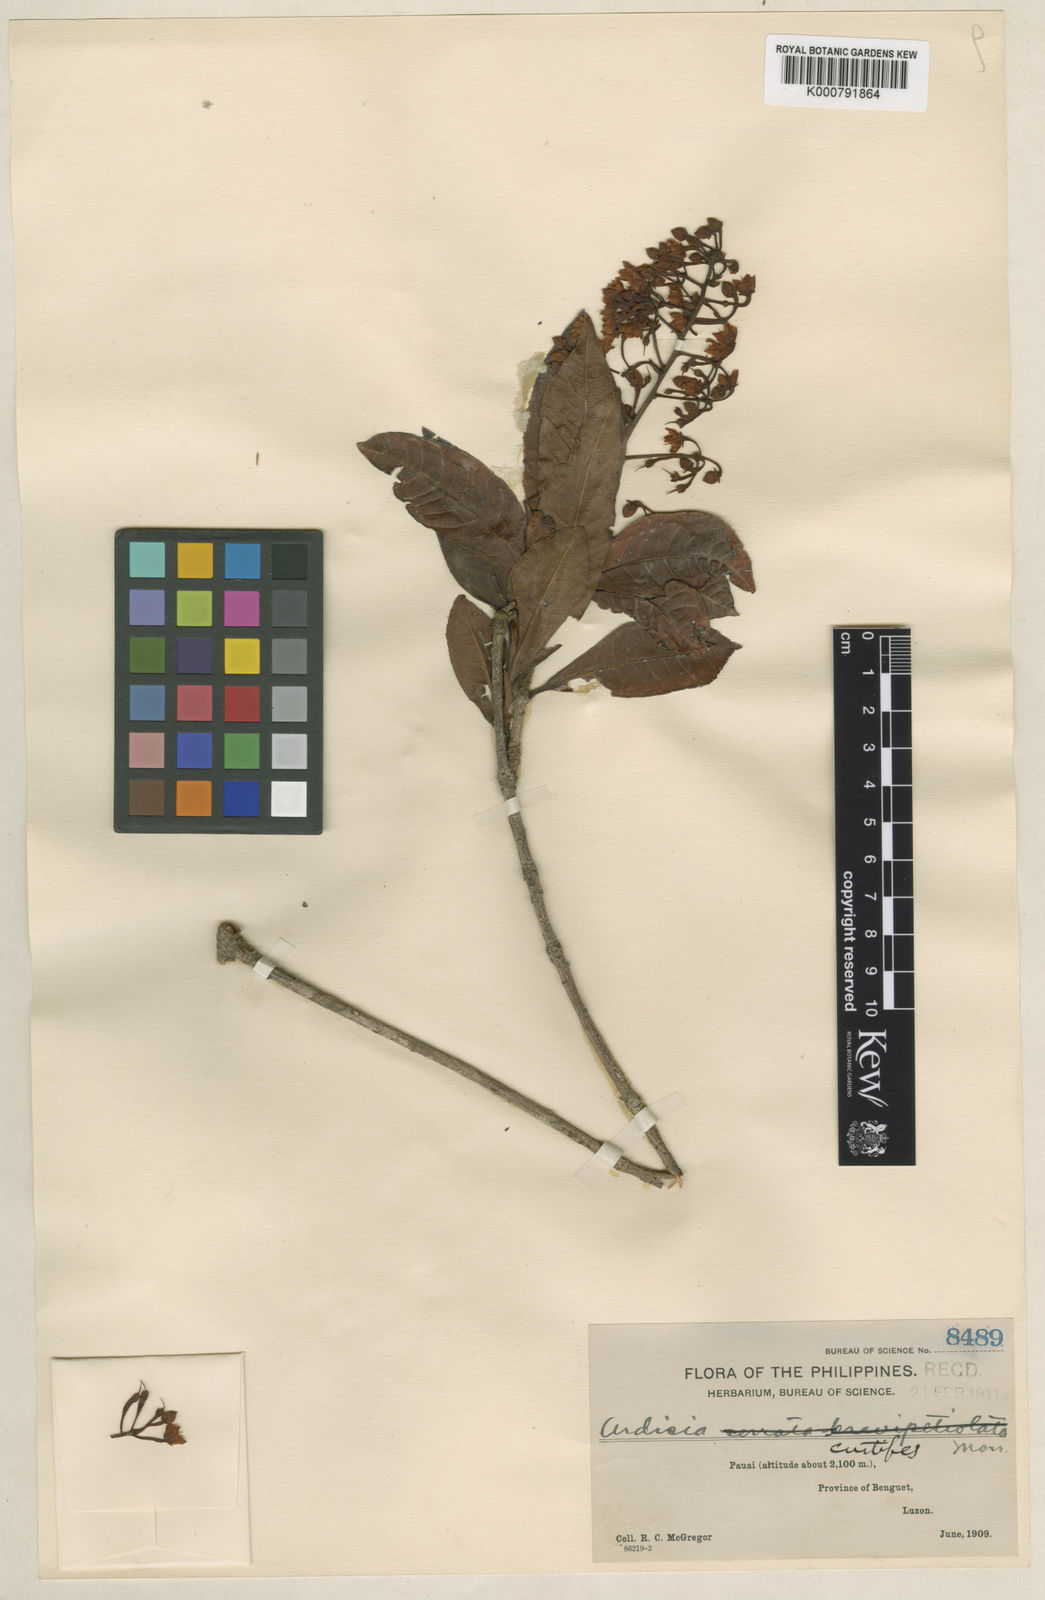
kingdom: Plantae
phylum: Tracheophyta
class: Magnoliopsida
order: Ericales
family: Primulaceae
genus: Ardisia
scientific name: Ardisia serrata
